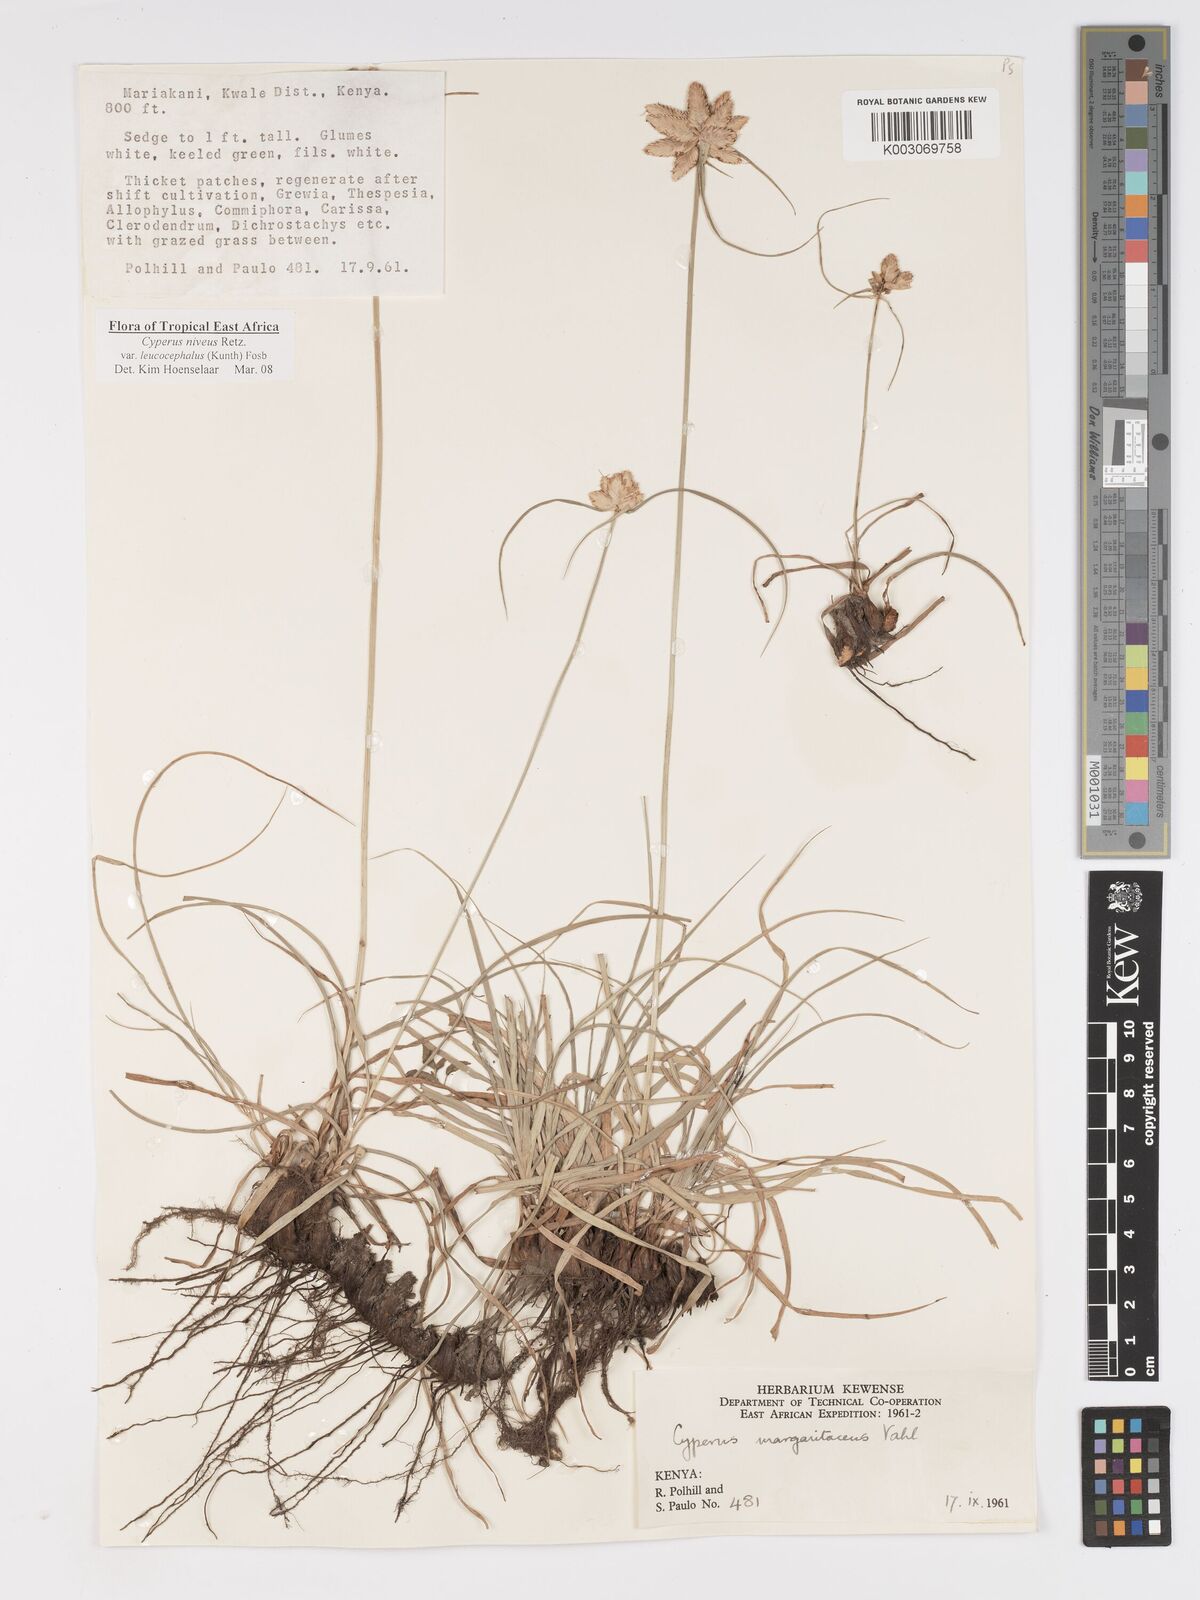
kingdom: Plantae
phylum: Tracheophyta
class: Liliopsida
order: Poales
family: Cyperaceae
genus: Cyperus
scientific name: Cyperus niveus
